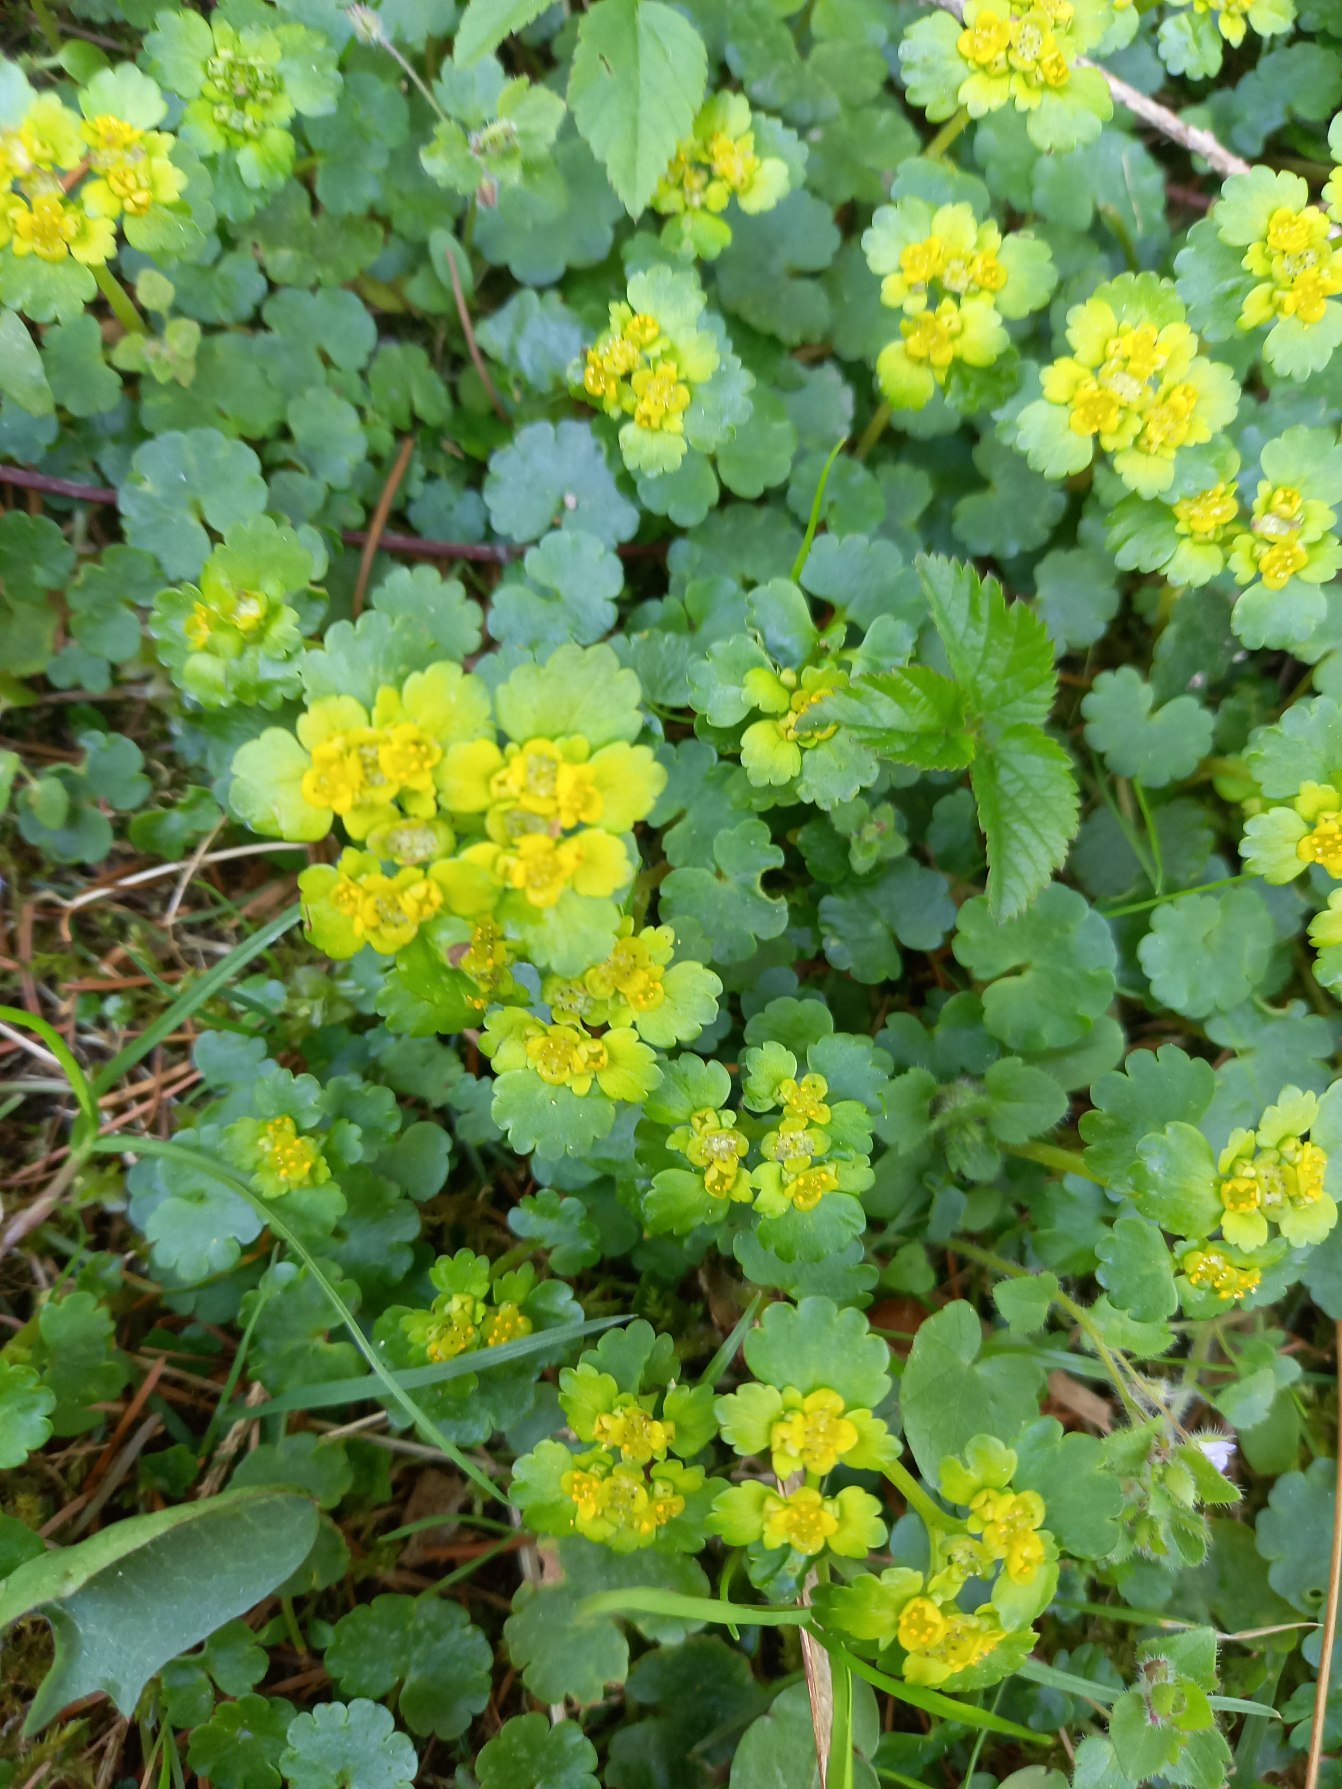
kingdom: Plantae
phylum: Tracheophyta
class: Magnoliopsida
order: Saxifragales
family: Saxifragaceae
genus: Chrysosplenium
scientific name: Chrysosplenium alternifolium
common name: Almindelig milturt
